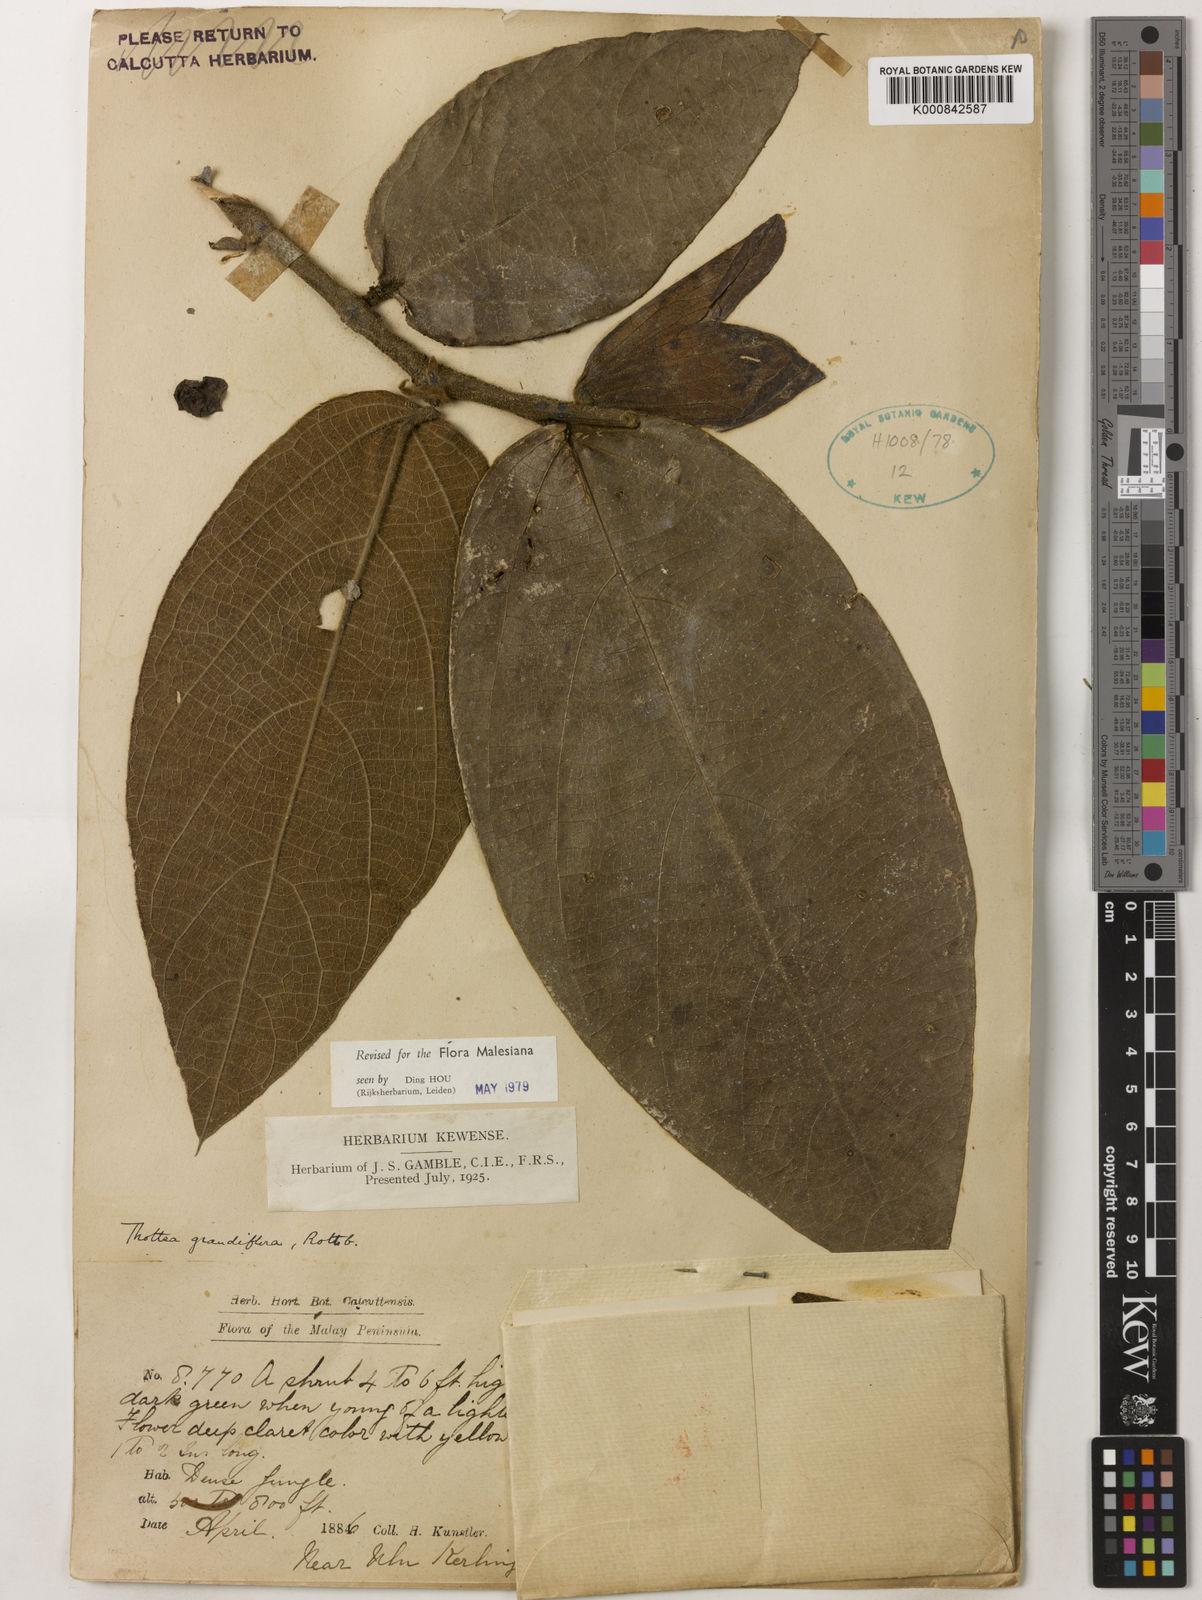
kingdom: Plantae
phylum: Tracheophyta
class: Magnoliopsida
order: Piperales
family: Aristolochiaceae
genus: Thottea
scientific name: Thottea grandiflora
